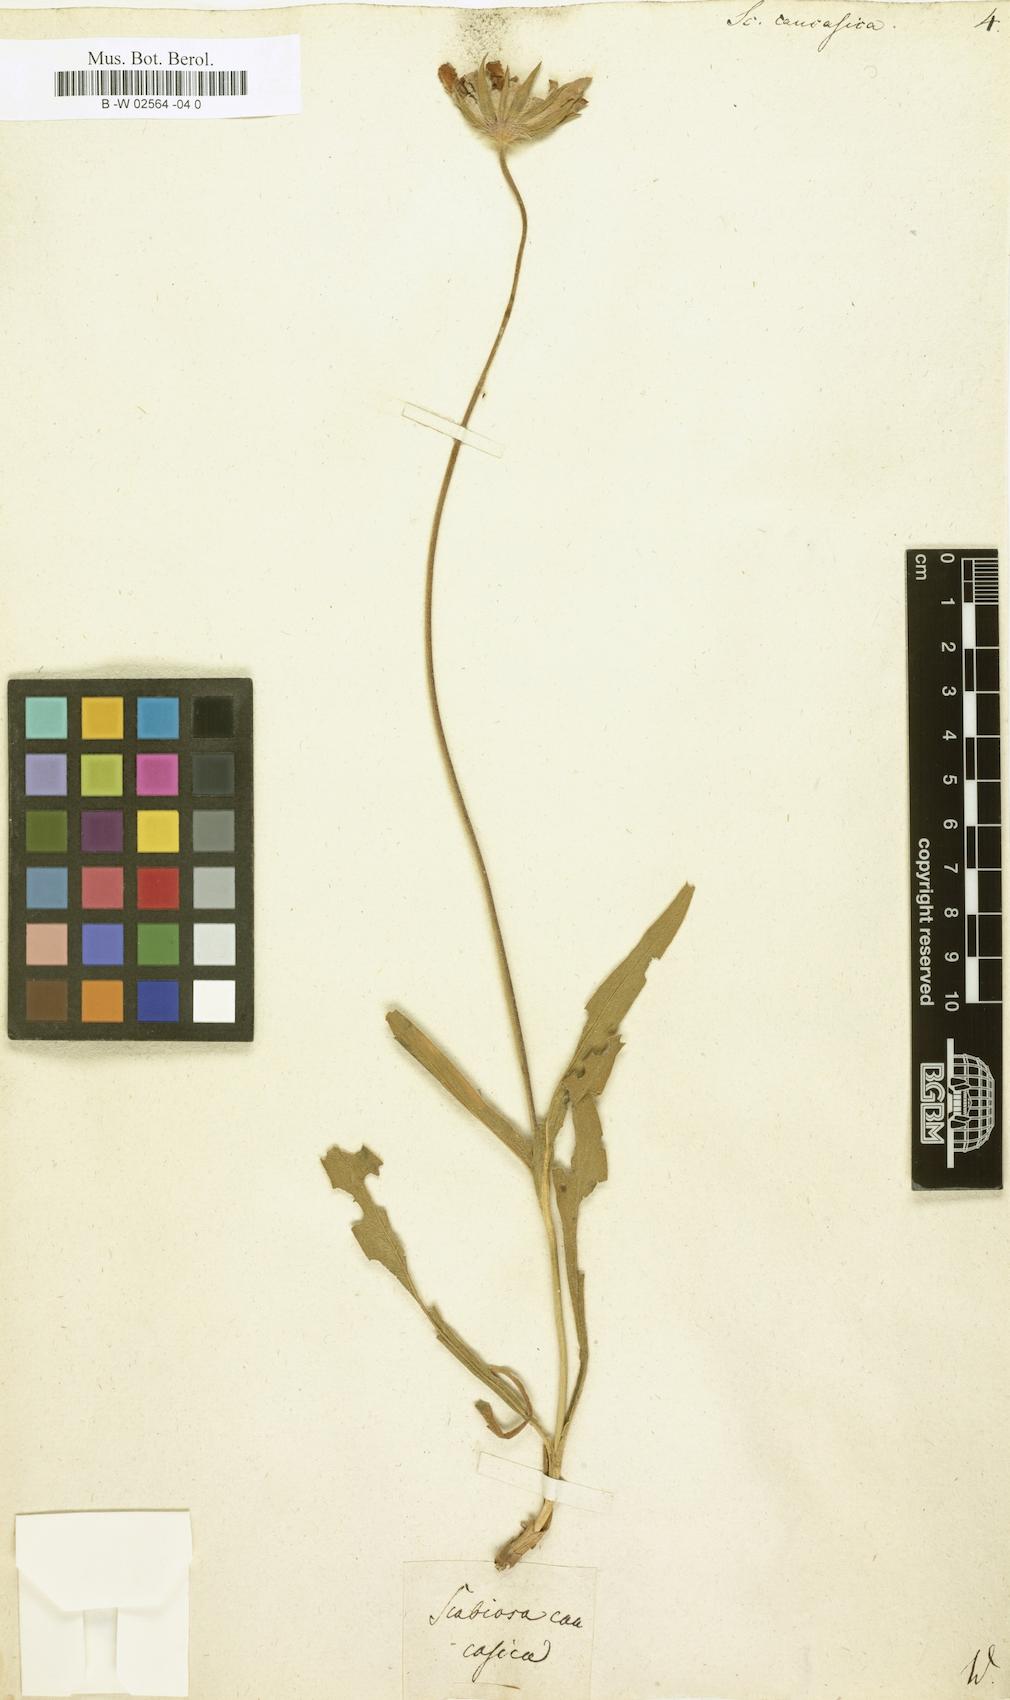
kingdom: Plantae
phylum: Tracheophyta
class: Magnoliopsida
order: Dipsacales
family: Caprifoliaceae
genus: Lomelosia
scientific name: Lomelosia caucasica
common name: Pincushion-flower
